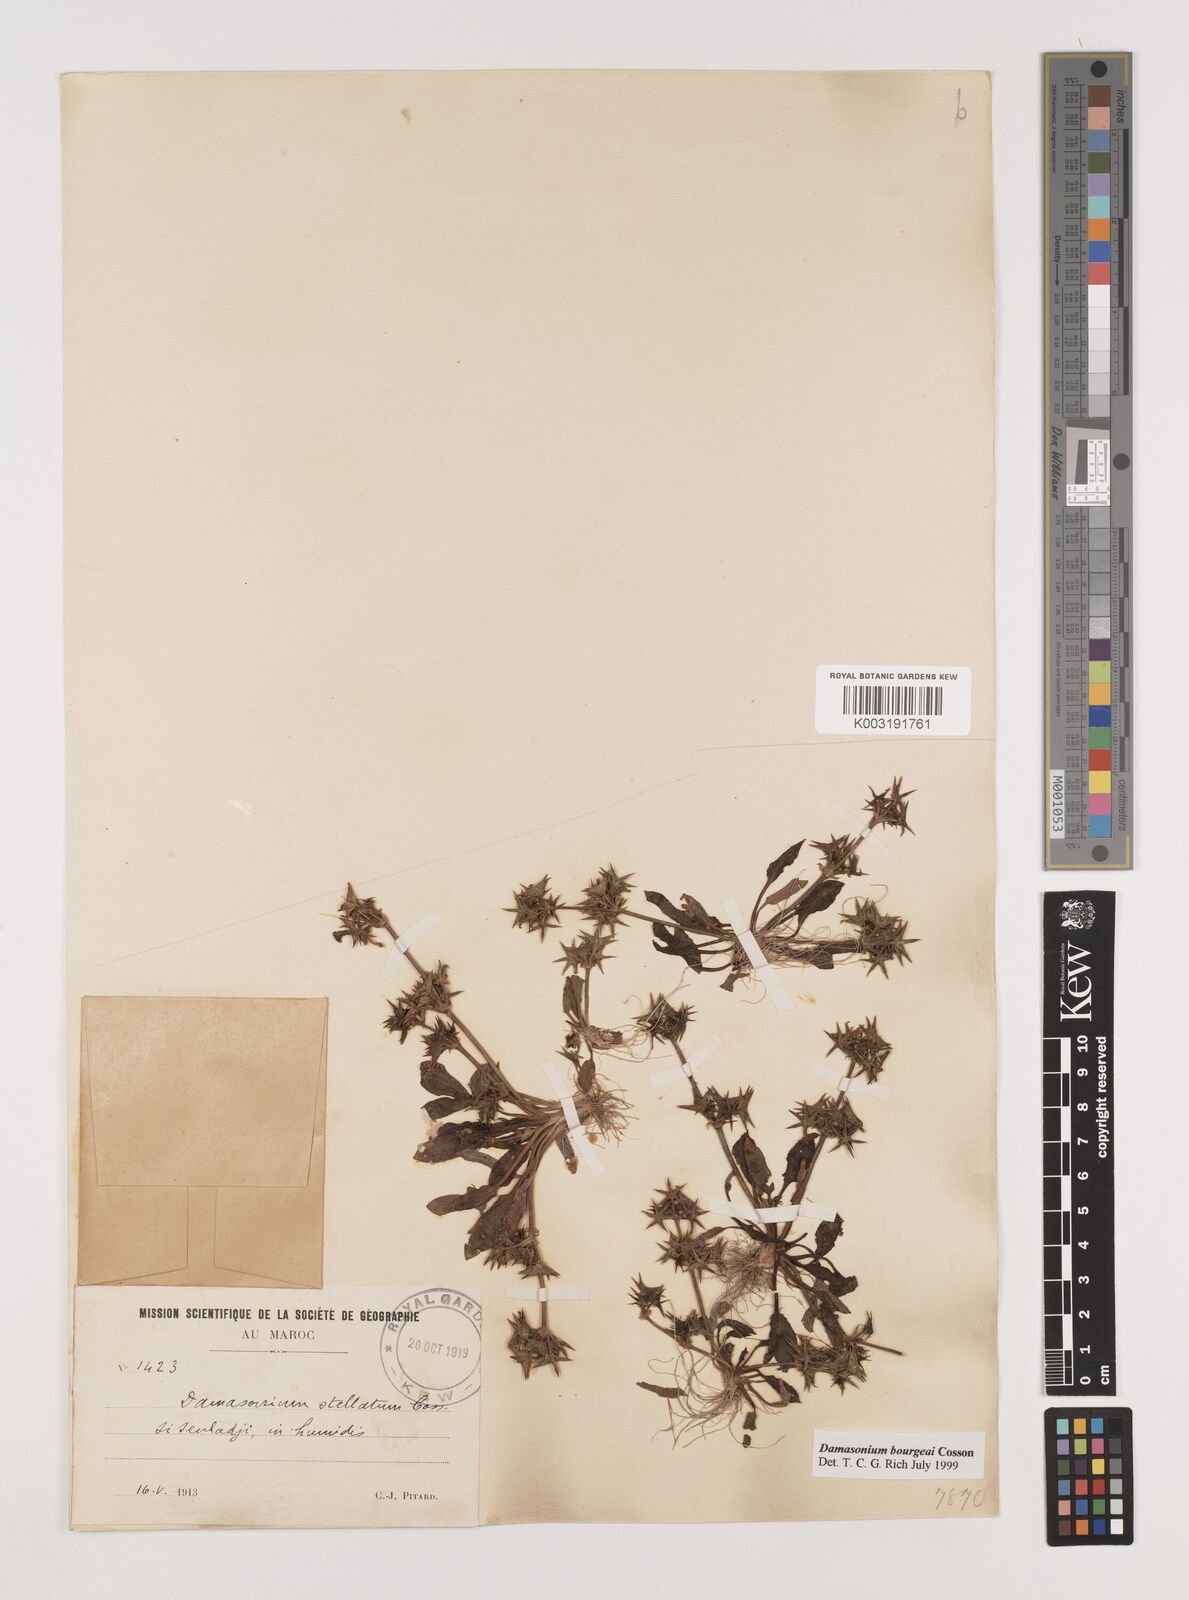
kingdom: Plantae
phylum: Tracheophyta
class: Liliopsida
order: Alismatales
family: Alismataceae
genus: Damasonium
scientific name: Damasonium bourgaei
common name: Starfruit
